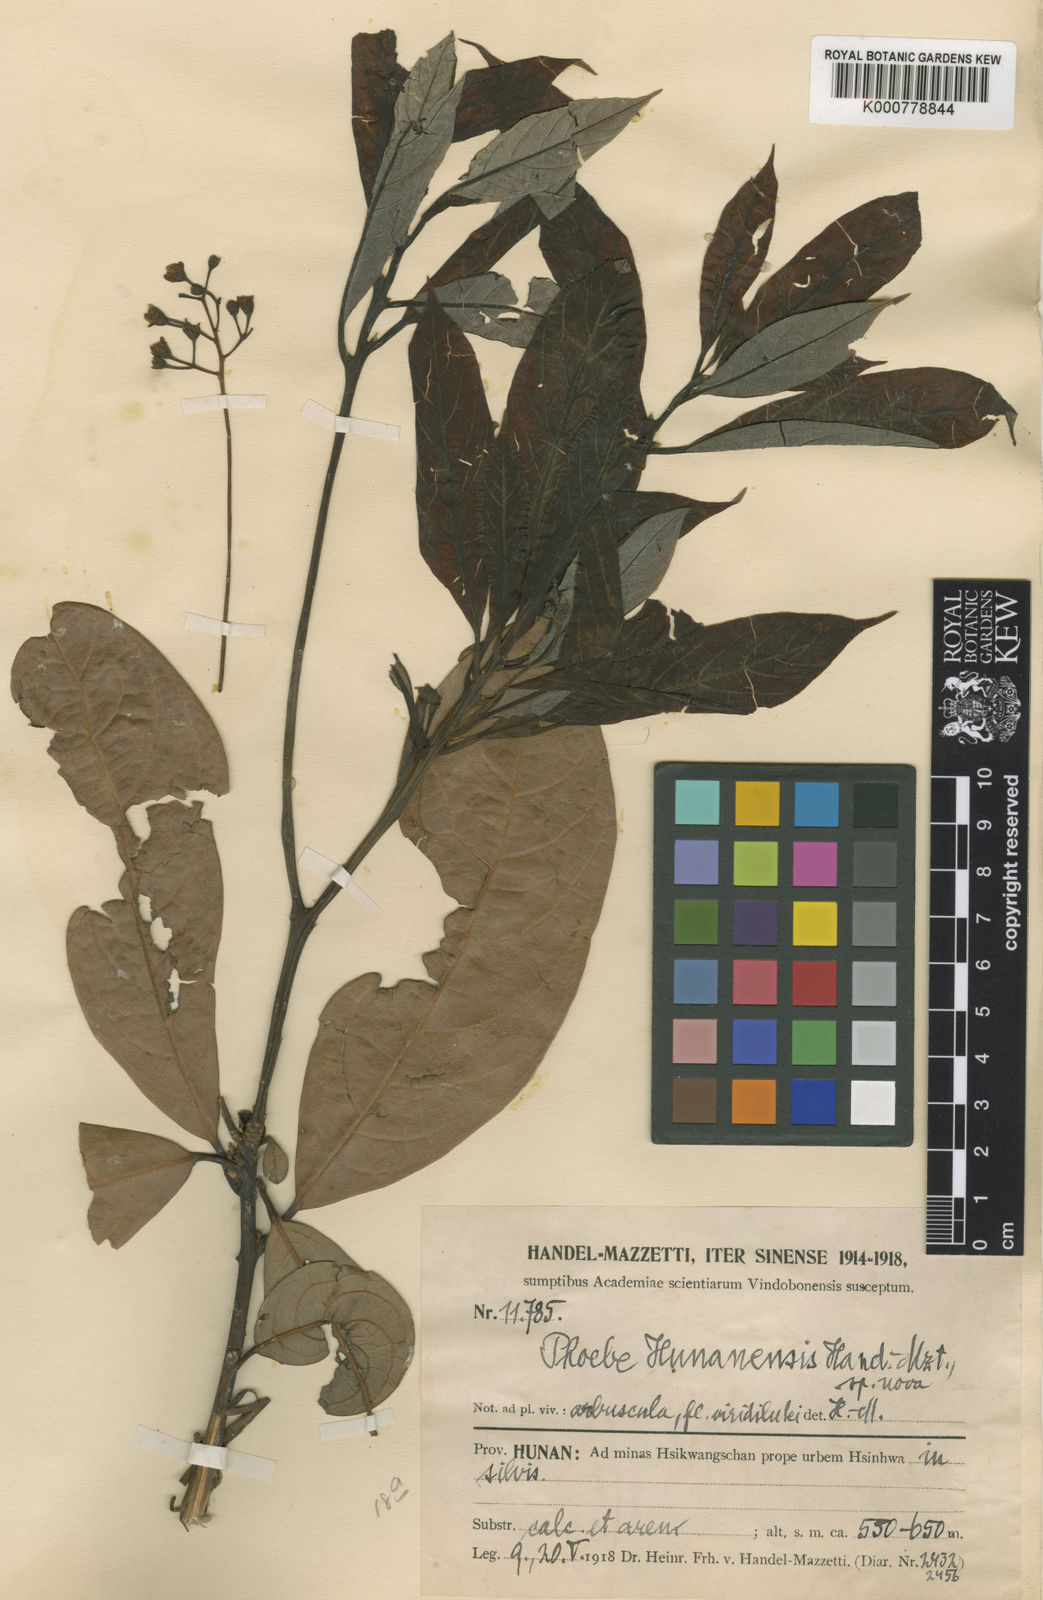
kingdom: Plantae
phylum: Tracheophyta
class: Magnoliopsida
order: Laurales
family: Lauraceae
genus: Phoebe
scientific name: Phoebe hunanensis
